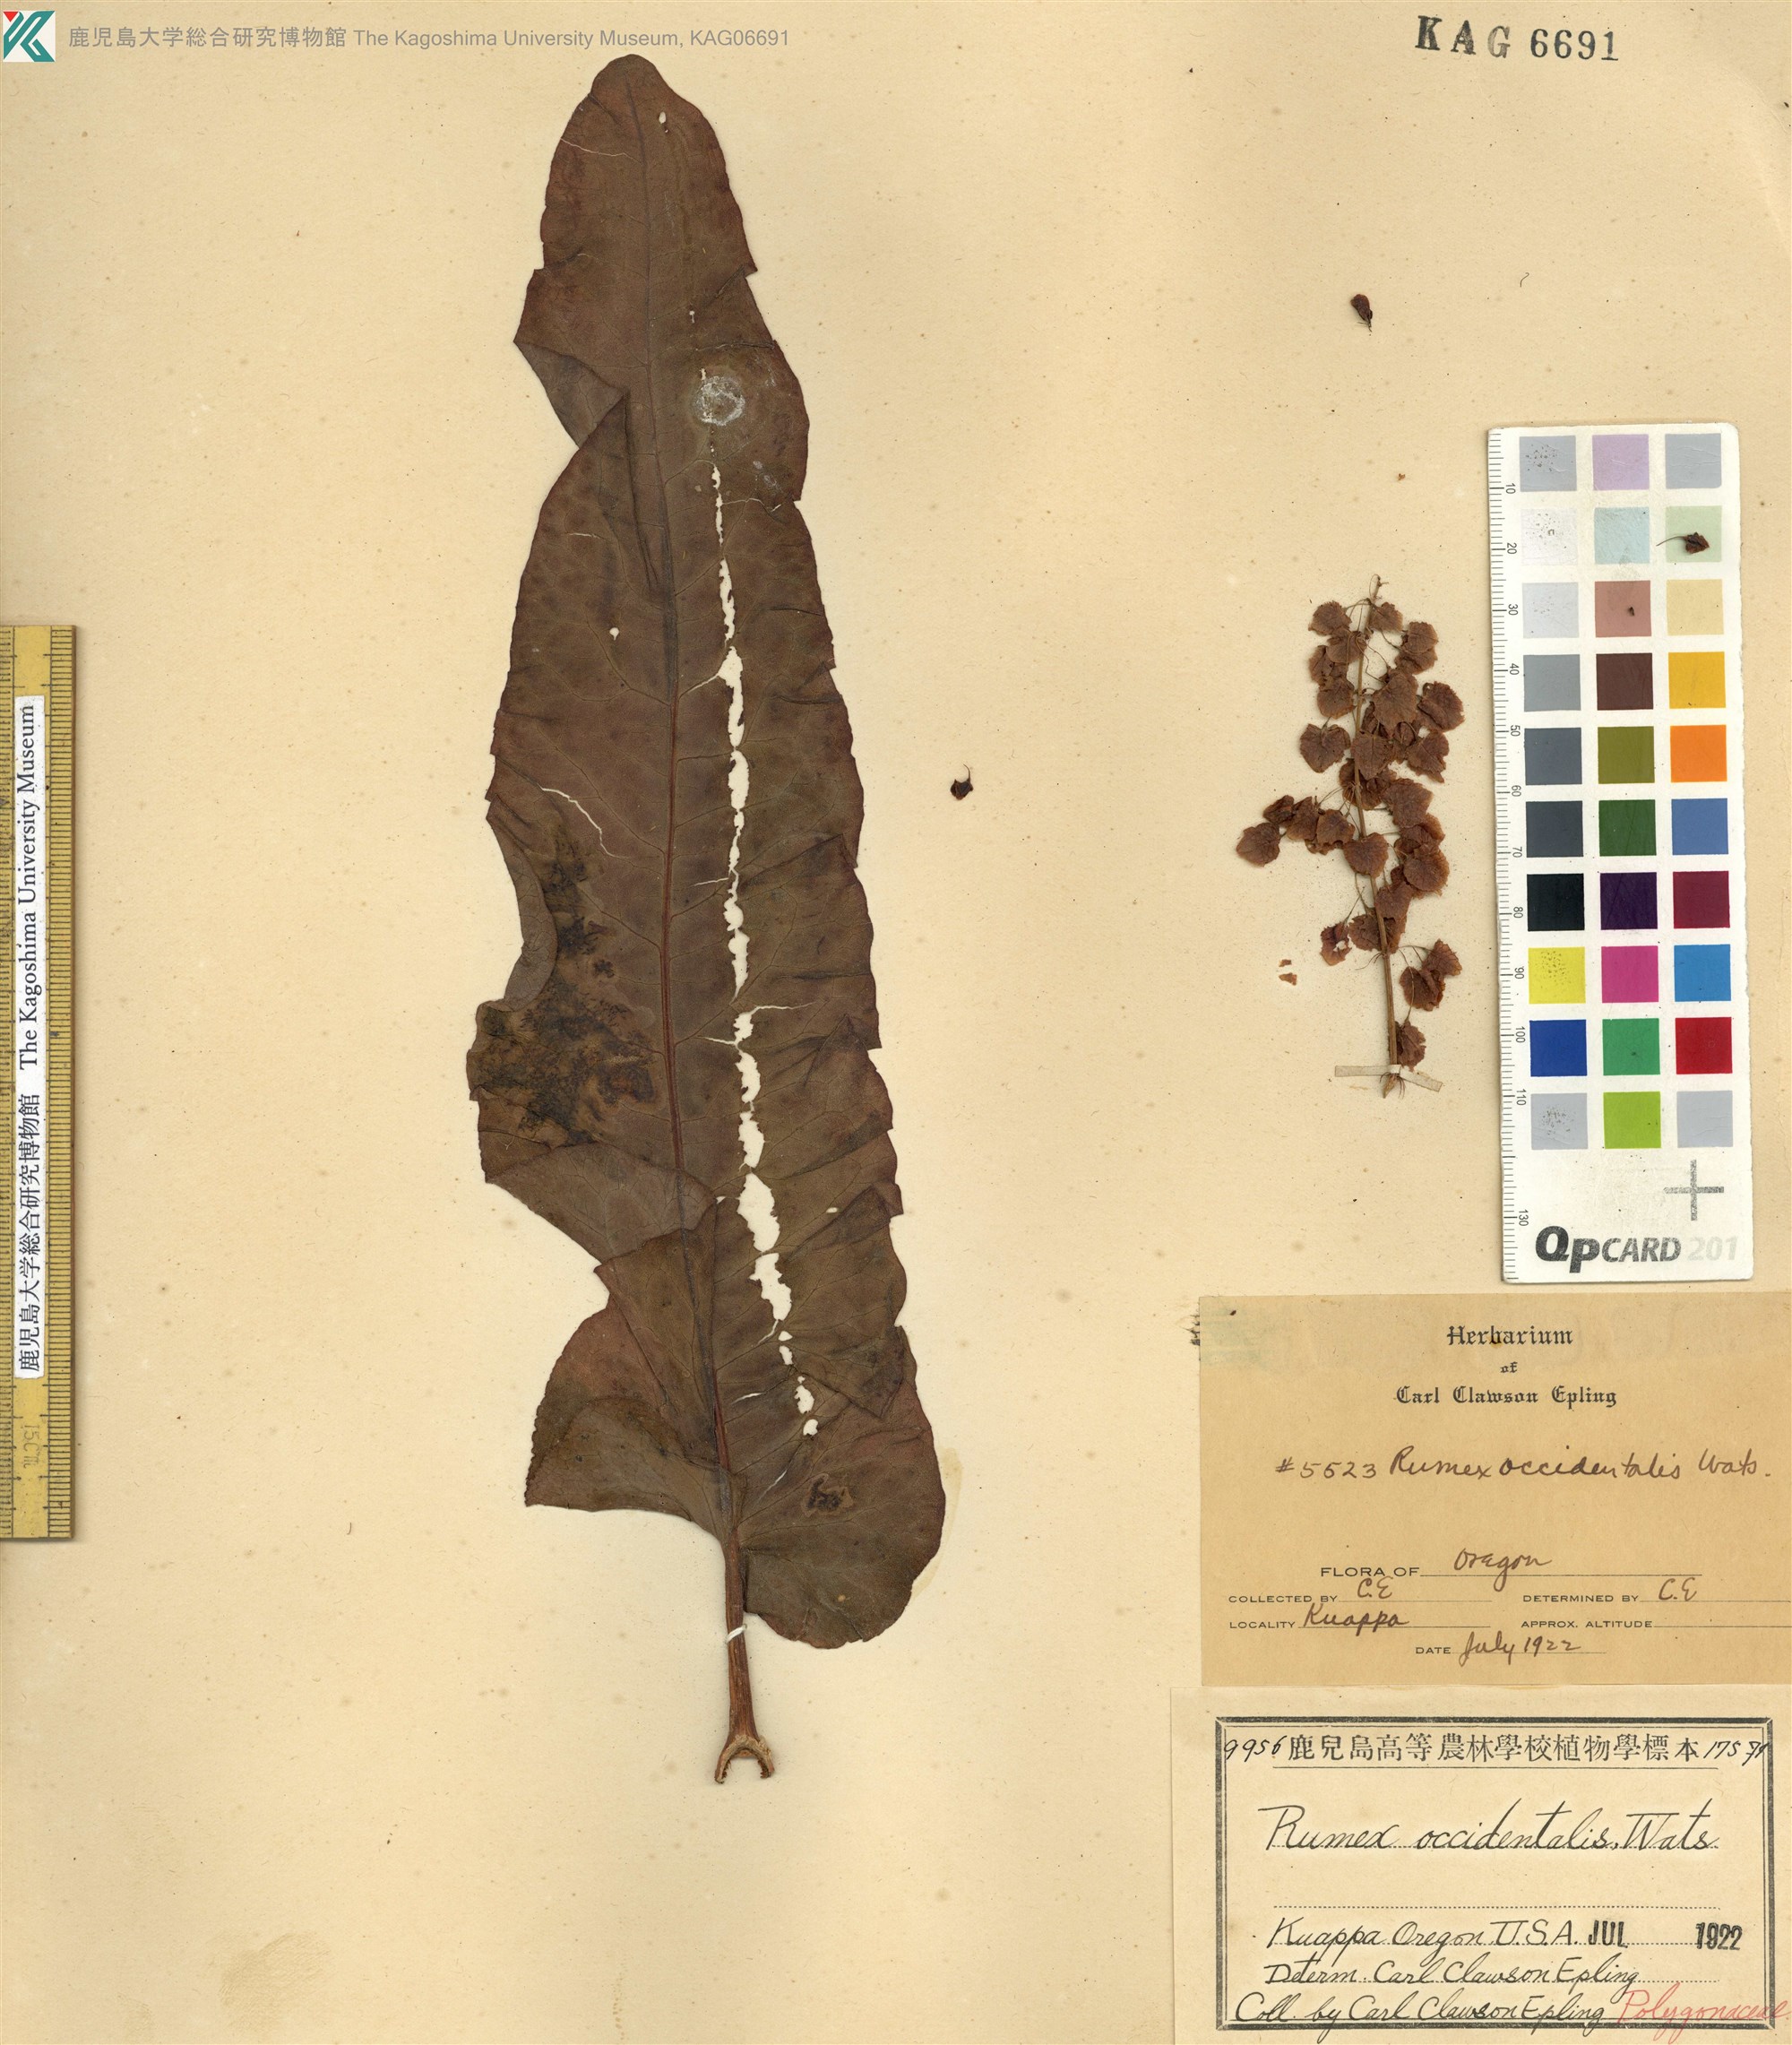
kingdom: Plantae
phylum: Tracheophyta
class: Magnoliopsida
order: Caryophyllales
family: Polygonaceae
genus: Rumex
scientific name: Rumex occidentalis
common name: Western dock
